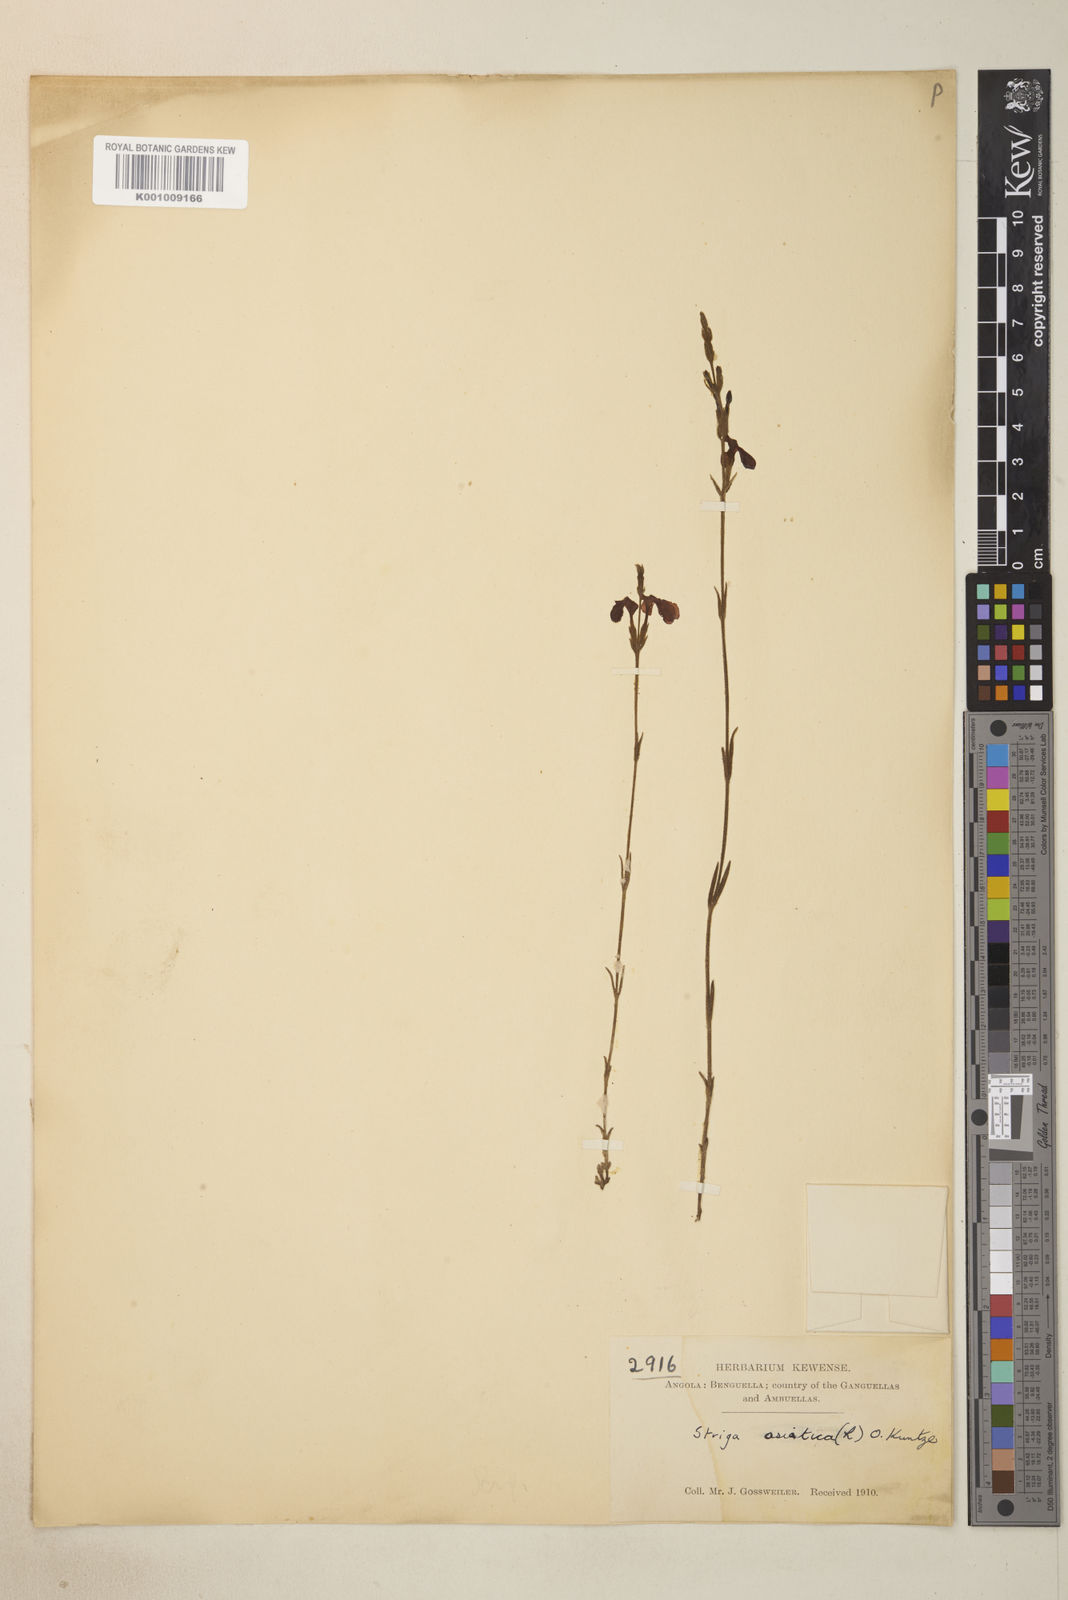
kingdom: Plantae
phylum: Tracheophyta
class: Magnoliopsida
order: Lamiales
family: Orobanchaceae
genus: Striga
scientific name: Striga asiatica
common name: Asiatic witchweed
